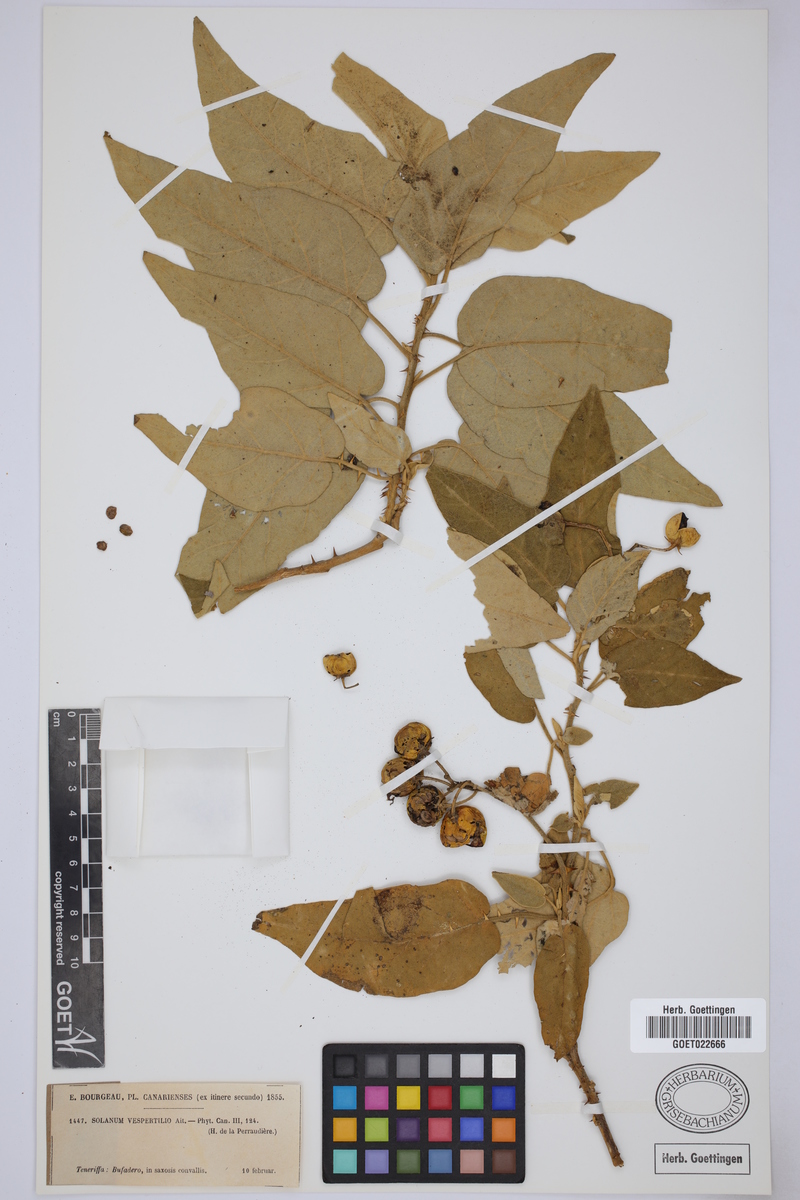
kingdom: Plantae
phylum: Tracheophyta
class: Magnoliopsida
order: Solanales
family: Solanaceae
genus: Solanum
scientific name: Solanum vespertilio
